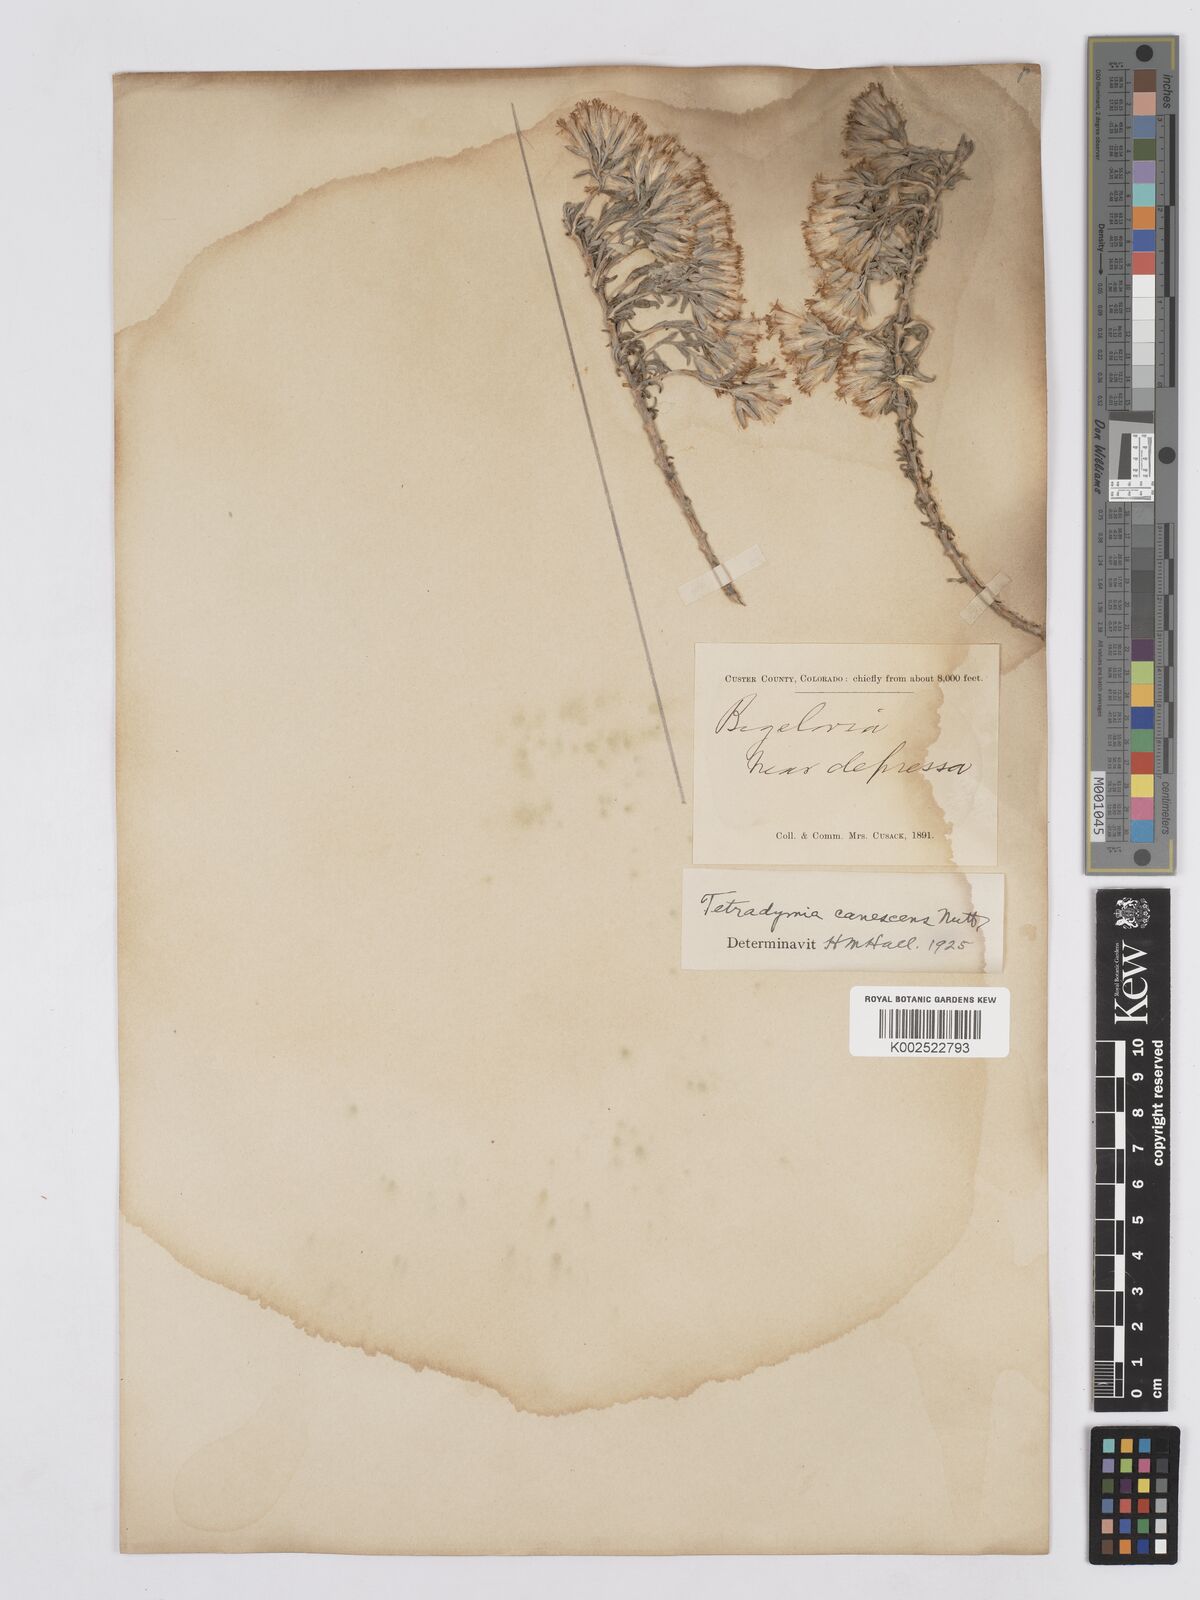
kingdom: Plantae
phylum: Tracheophyta
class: Magnoliopsida
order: Asterales
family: Asteraceae
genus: Tetradymia
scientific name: Tetradymia canescens
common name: Spineless horsebrush
